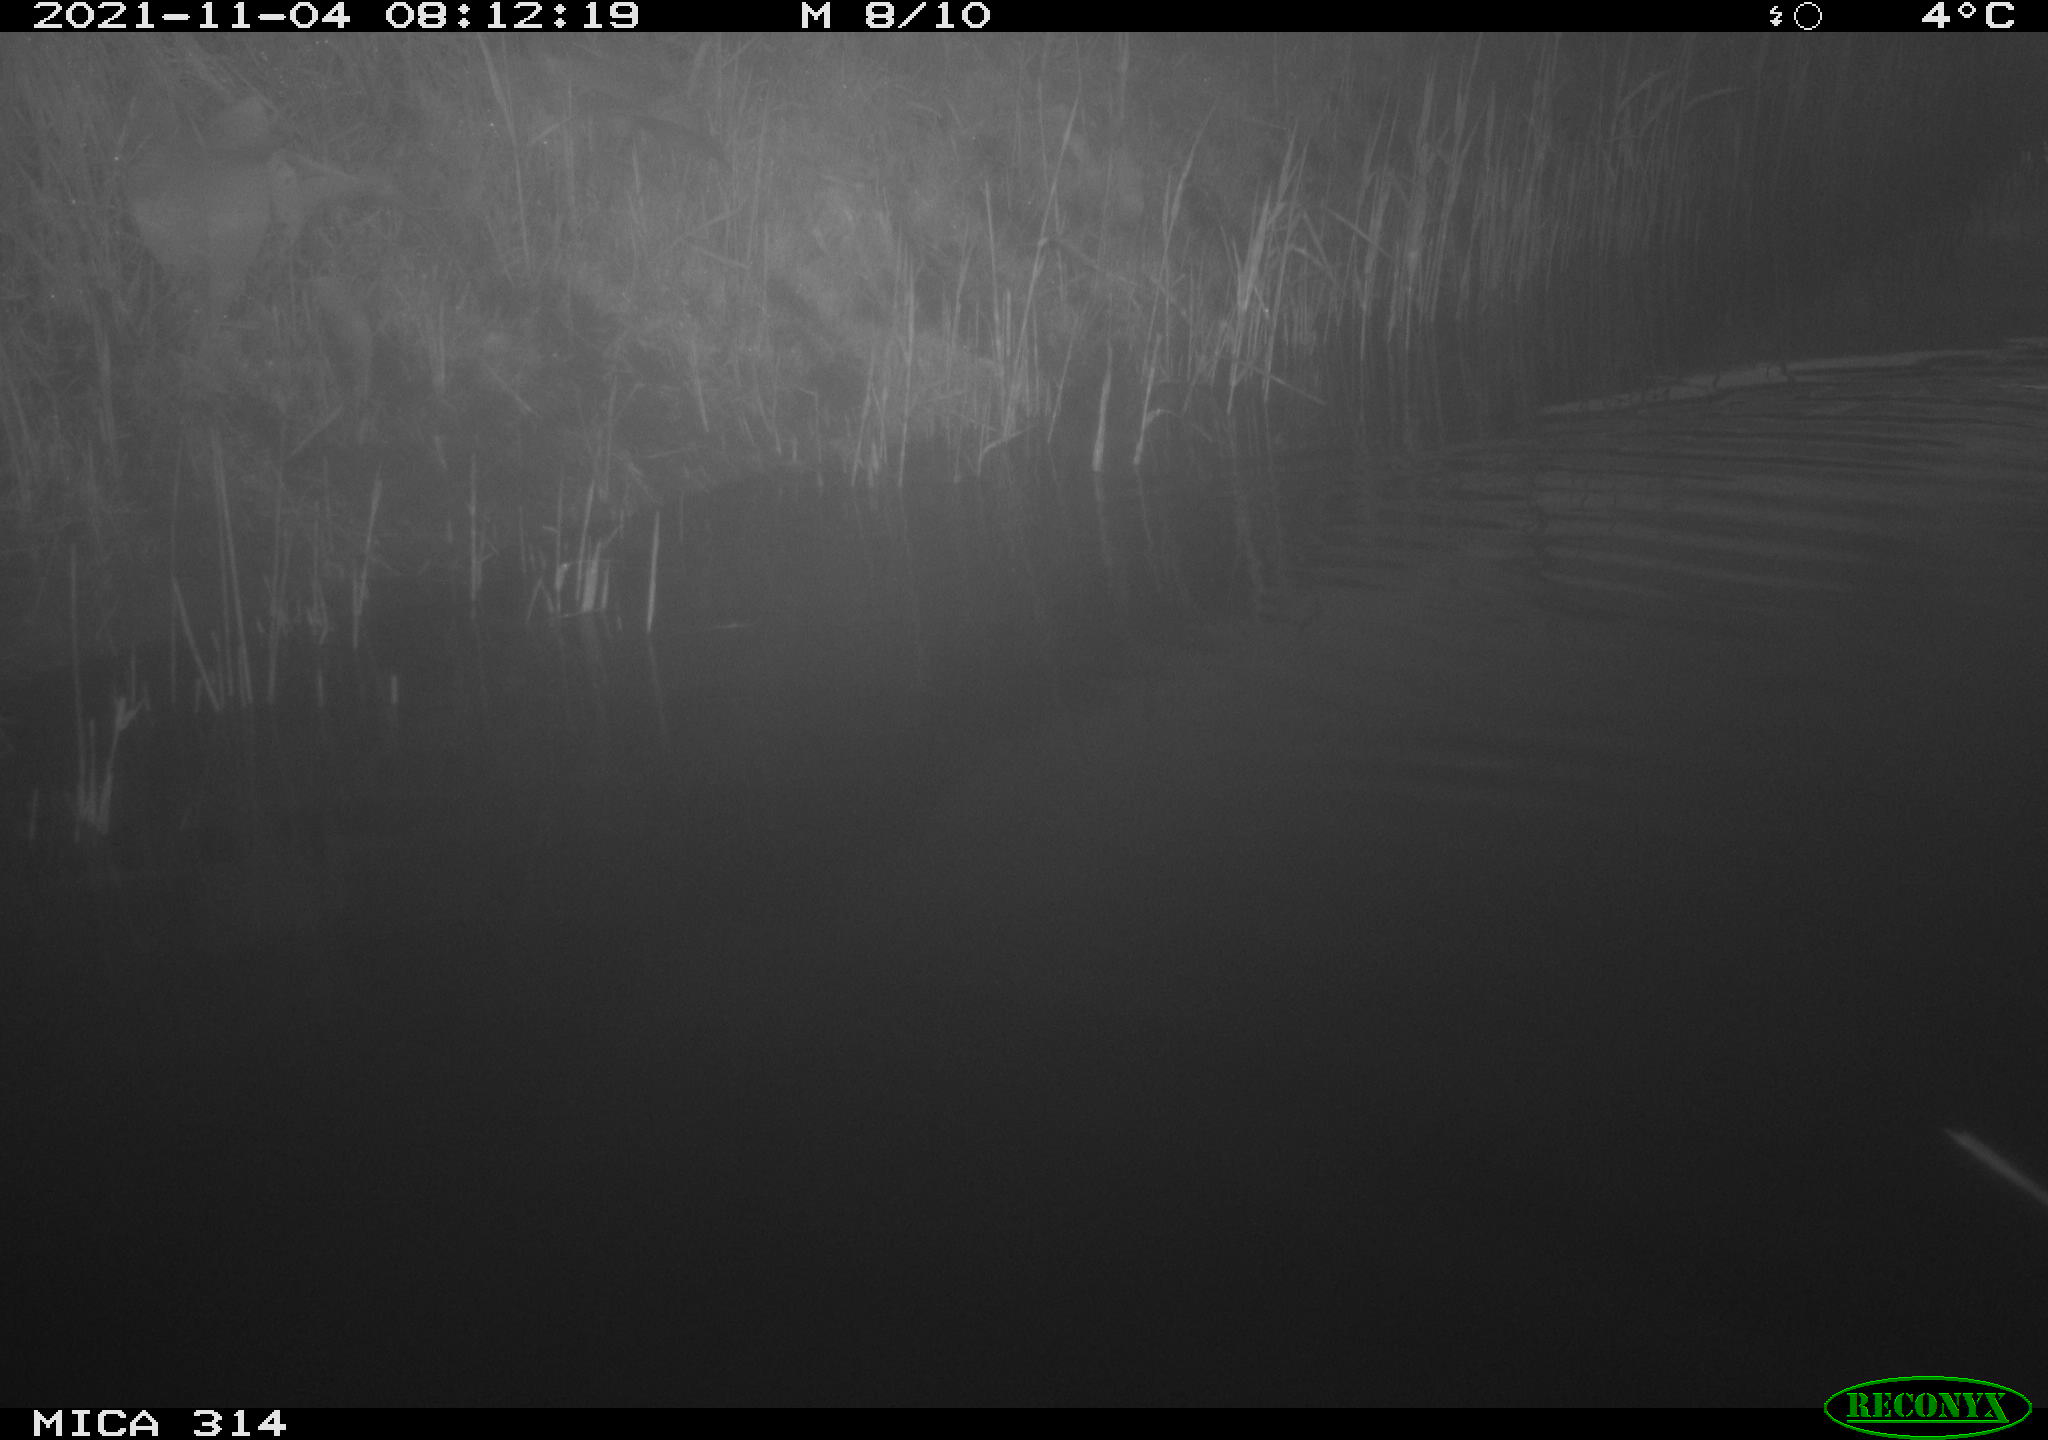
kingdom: Animalia
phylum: Chordata
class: Aves
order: Gruiformes
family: Rallidae
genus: Gallinula
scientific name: Gallinula chloropus
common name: Common moorhen
